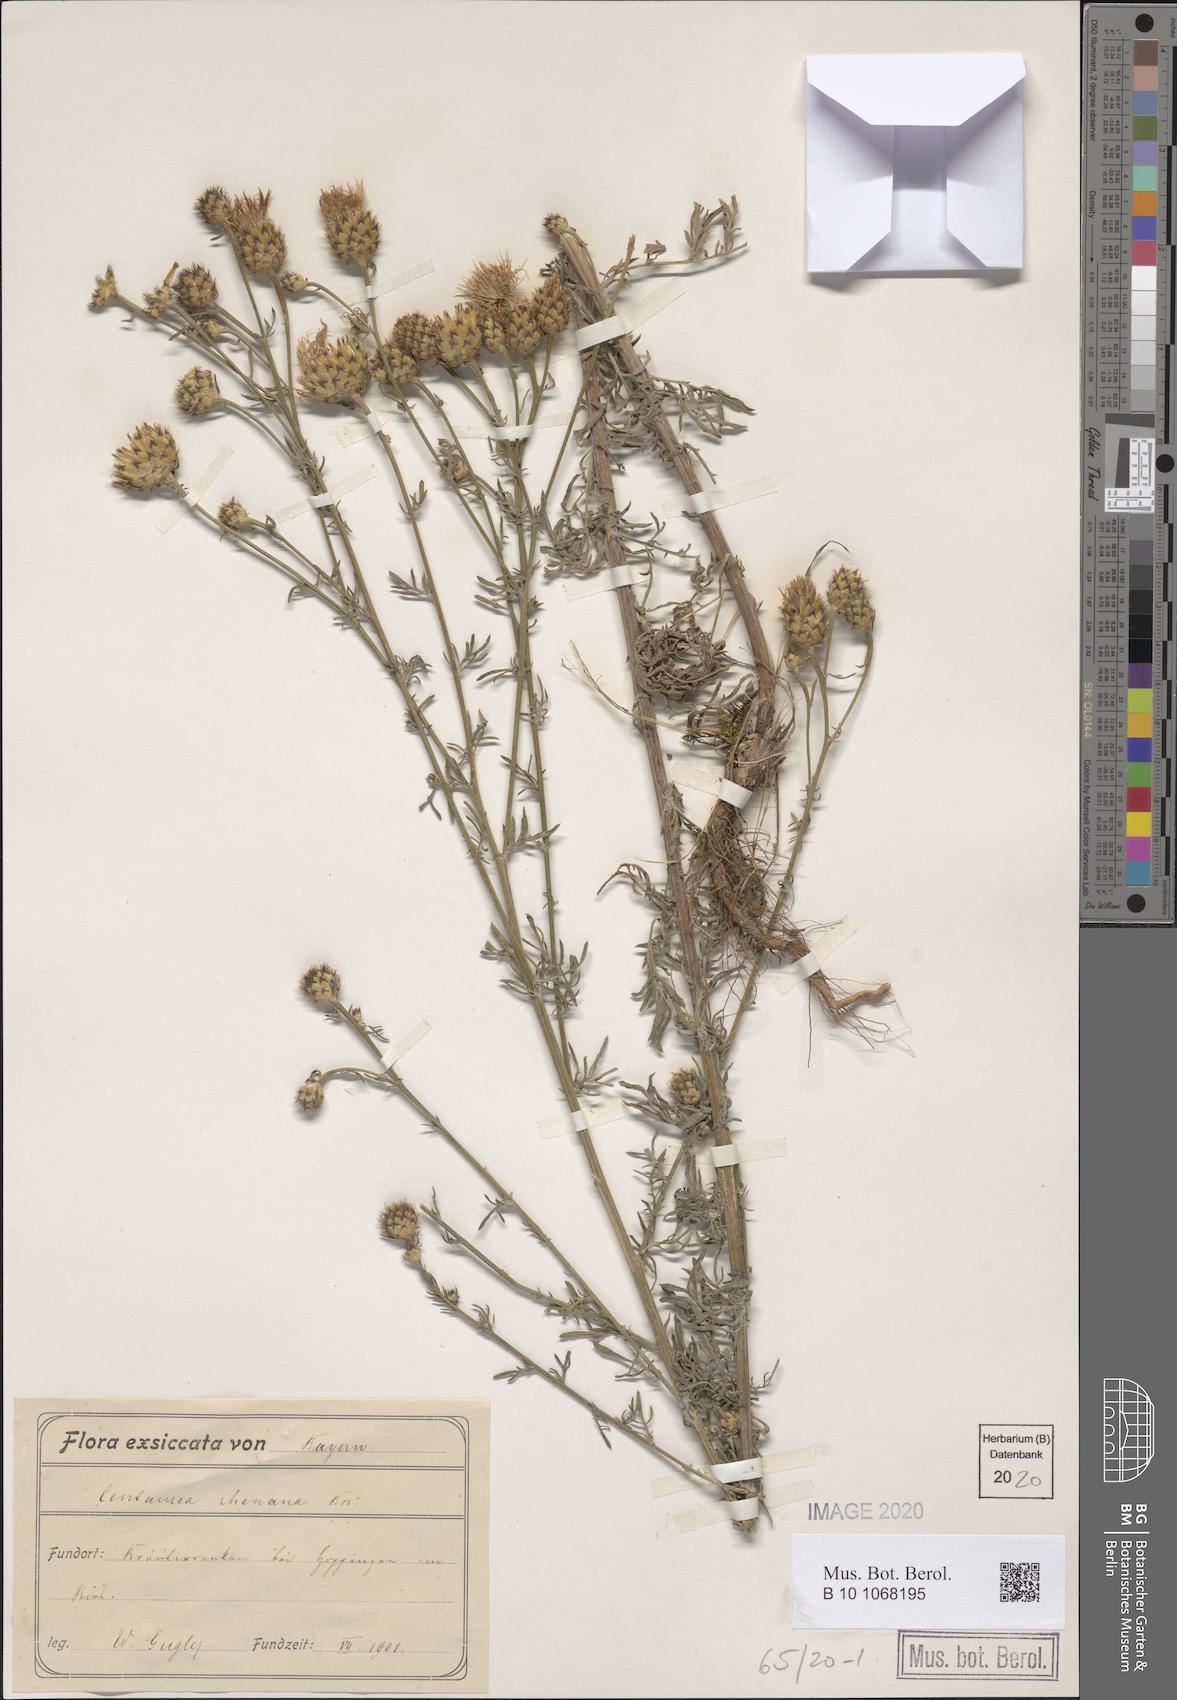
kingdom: Plantae
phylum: Tracheophyta
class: Magnoliopsida
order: Asterales
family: Asteraceae
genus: Centaurea
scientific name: Centaurea stoebe
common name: Spotted knapweed
